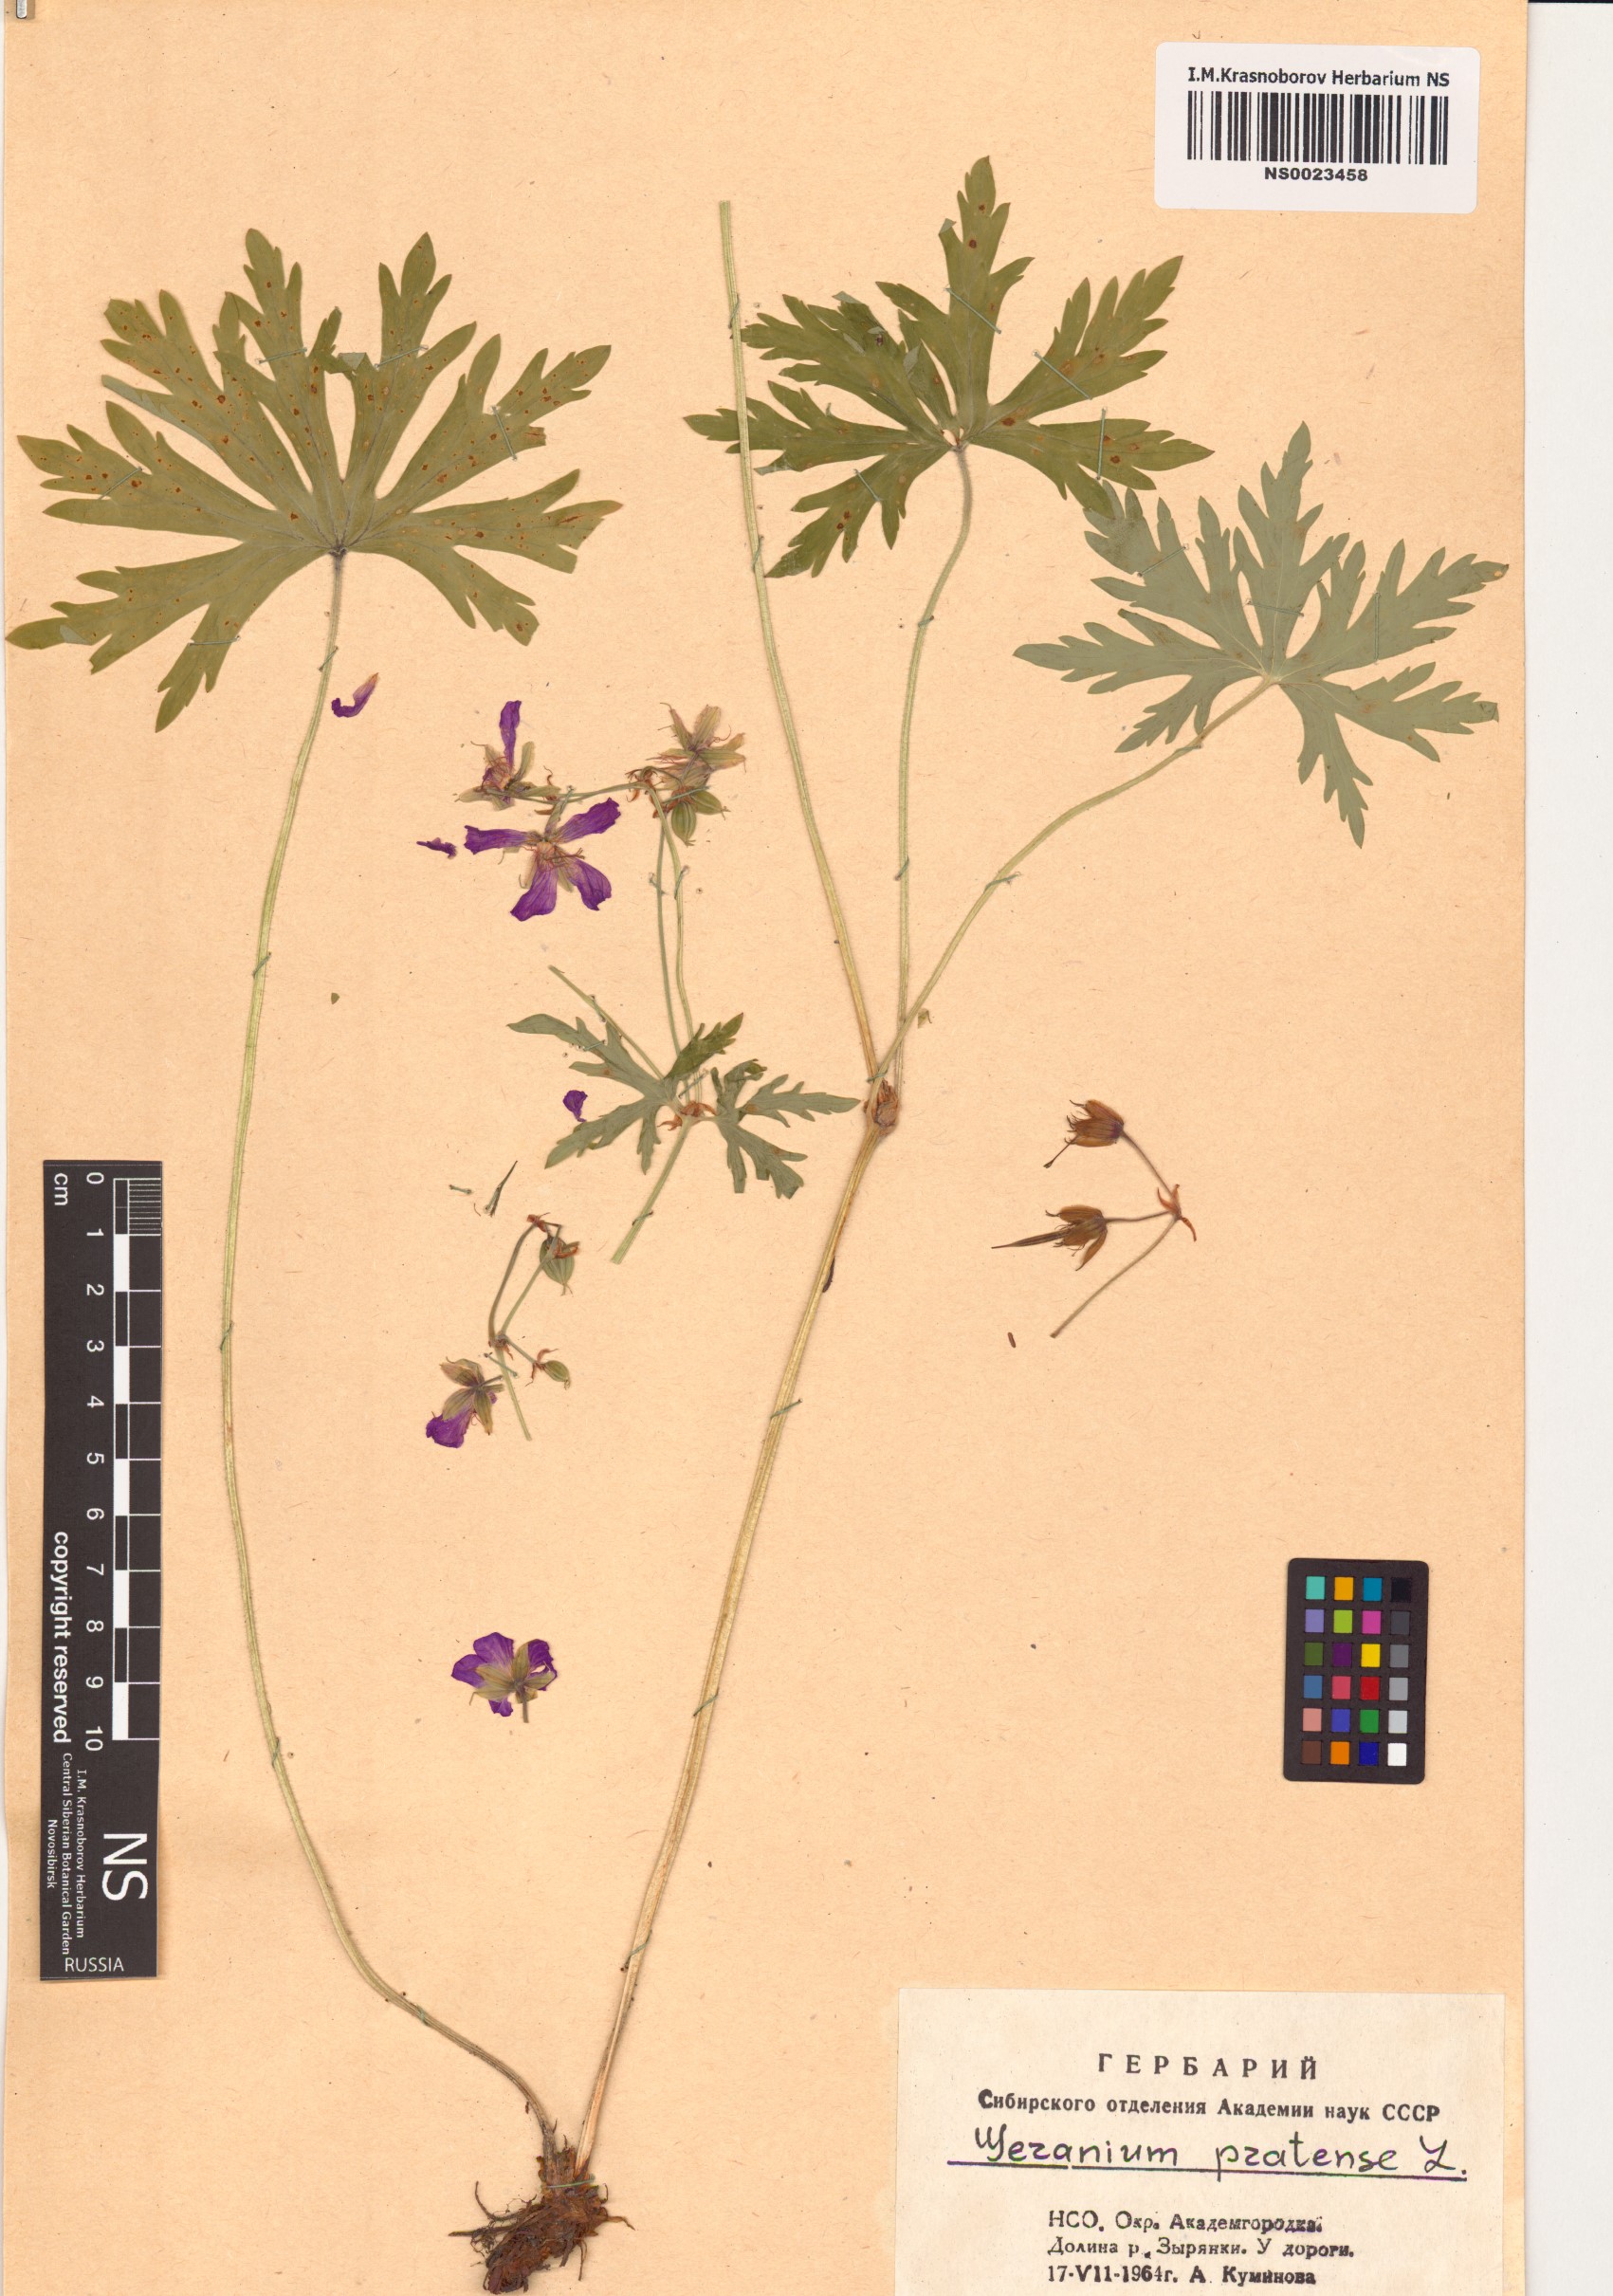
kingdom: Plantae
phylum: Tracheophyta
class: Magnoliopsida
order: Geraniales
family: Geraniaceae
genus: Geranium
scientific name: Geranium pratense
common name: Meadow crane's-bill
